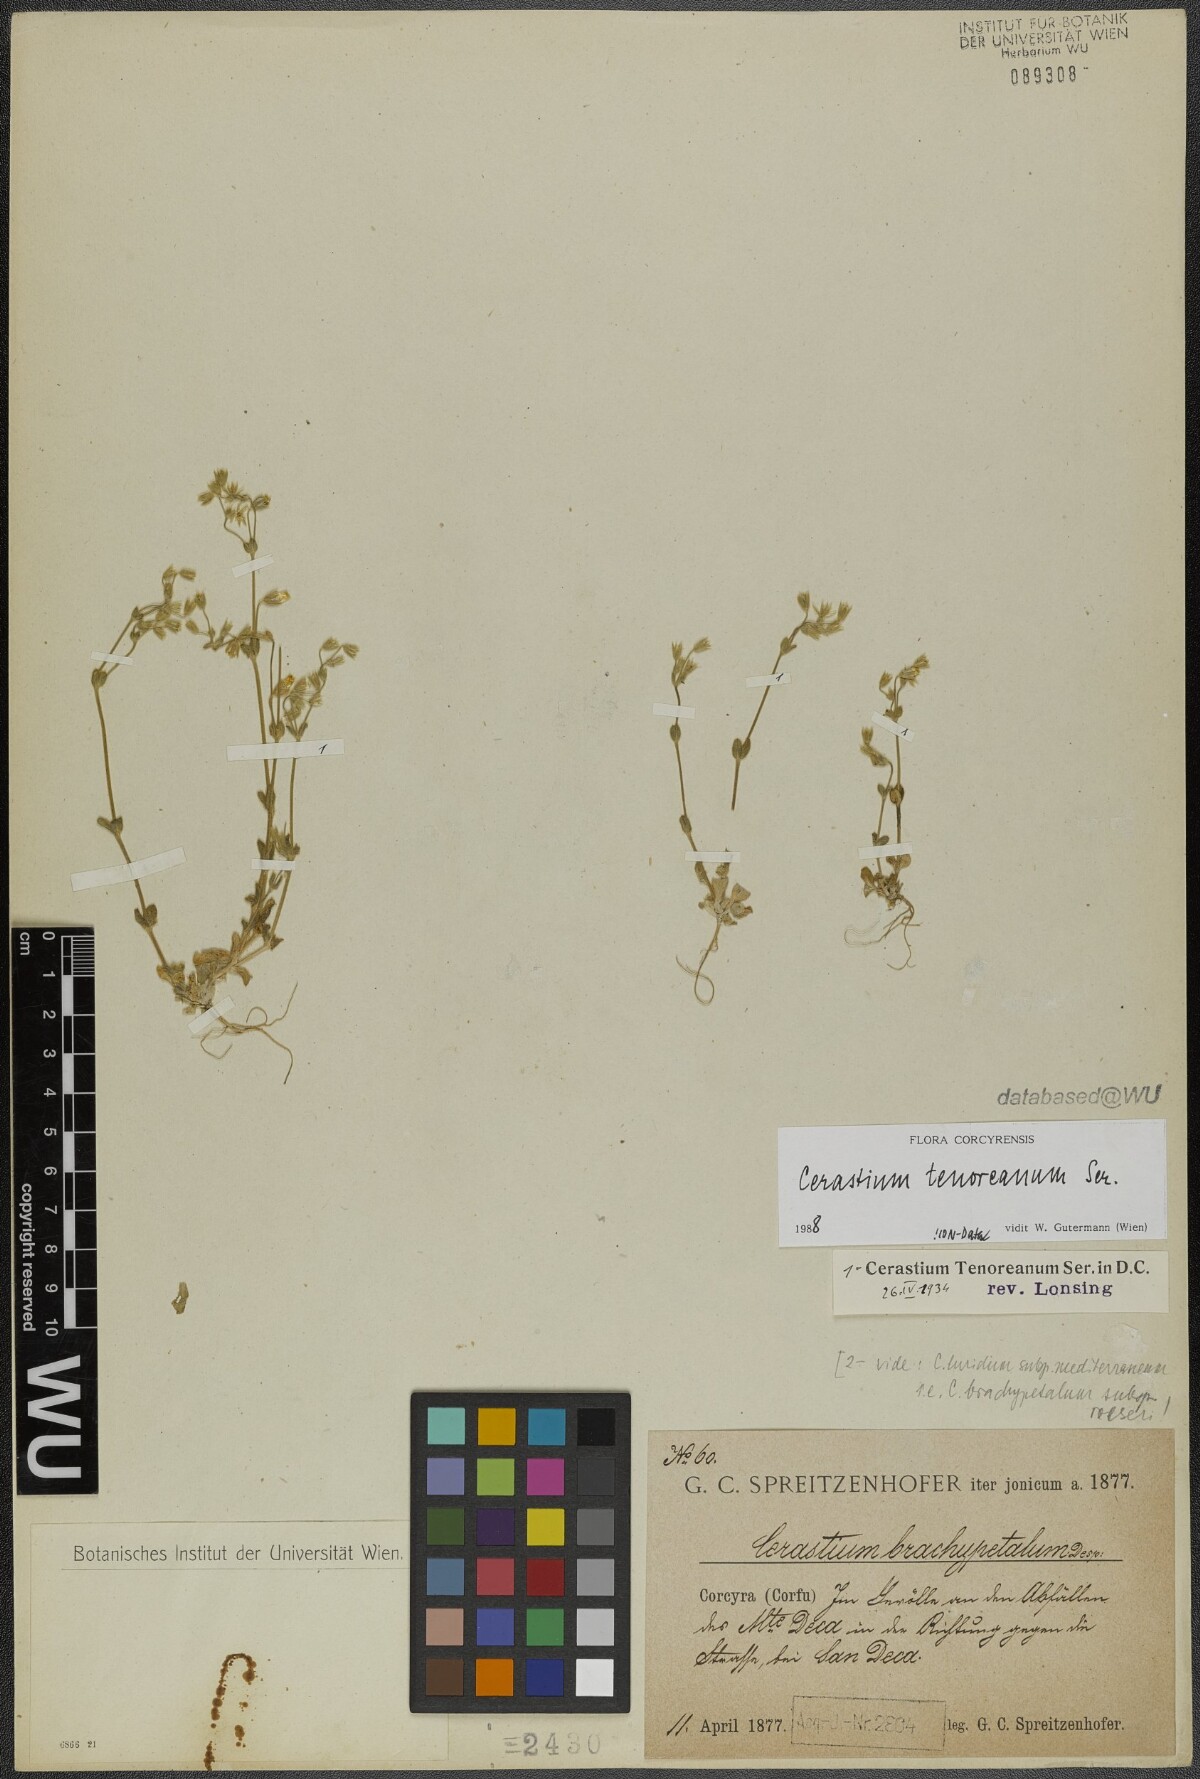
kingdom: Plantae
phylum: Tracheophyta
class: Magnoliopsida
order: Caryophyllales
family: Caryophyllaceae
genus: Cerastium
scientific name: Cerastium tenoreanum
